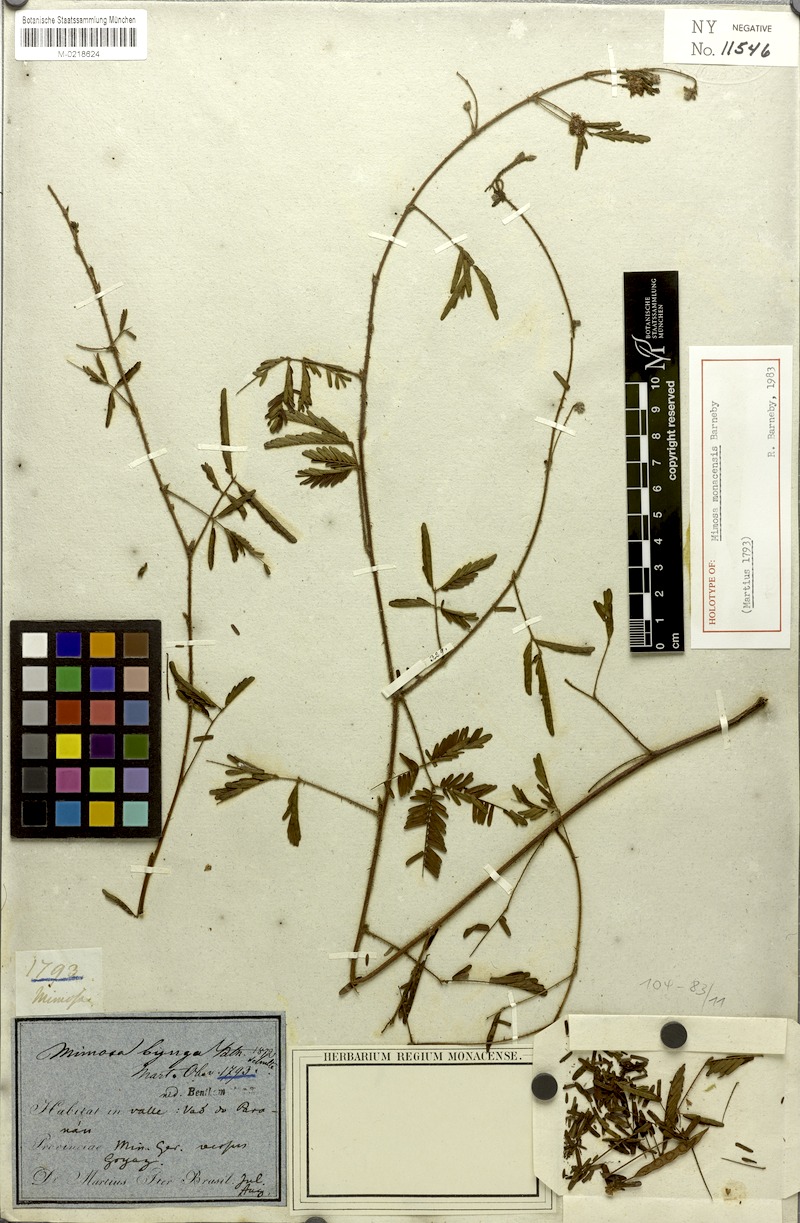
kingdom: Plantae
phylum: Tracheophyta
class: Magnoliopsida
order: Fabales
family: Fabaceae
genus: Mimosa
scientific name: Mimosa monacensis
